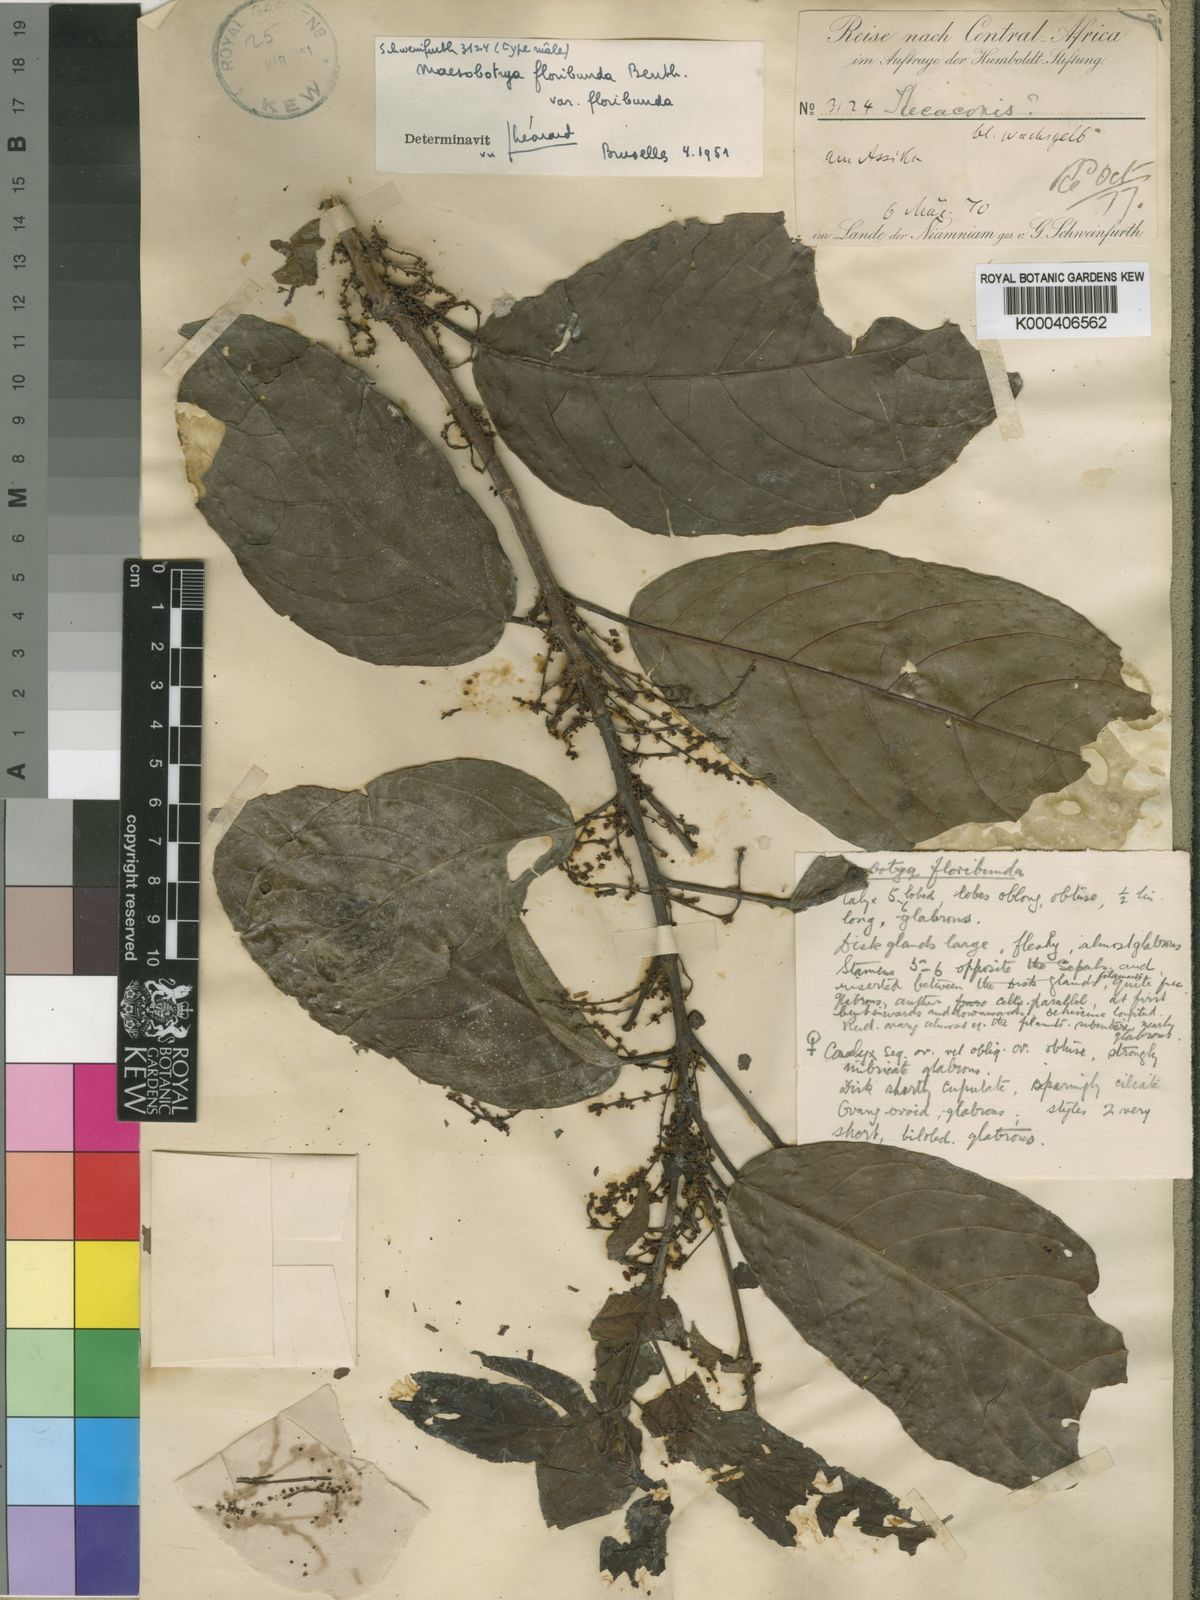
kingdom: Plantae
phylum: Tracheophyta
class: Magnoliopsida
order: Malpighiales
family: Phyllanthaceae
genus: Maesobotrya
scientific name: Maesobotrya floribunda
